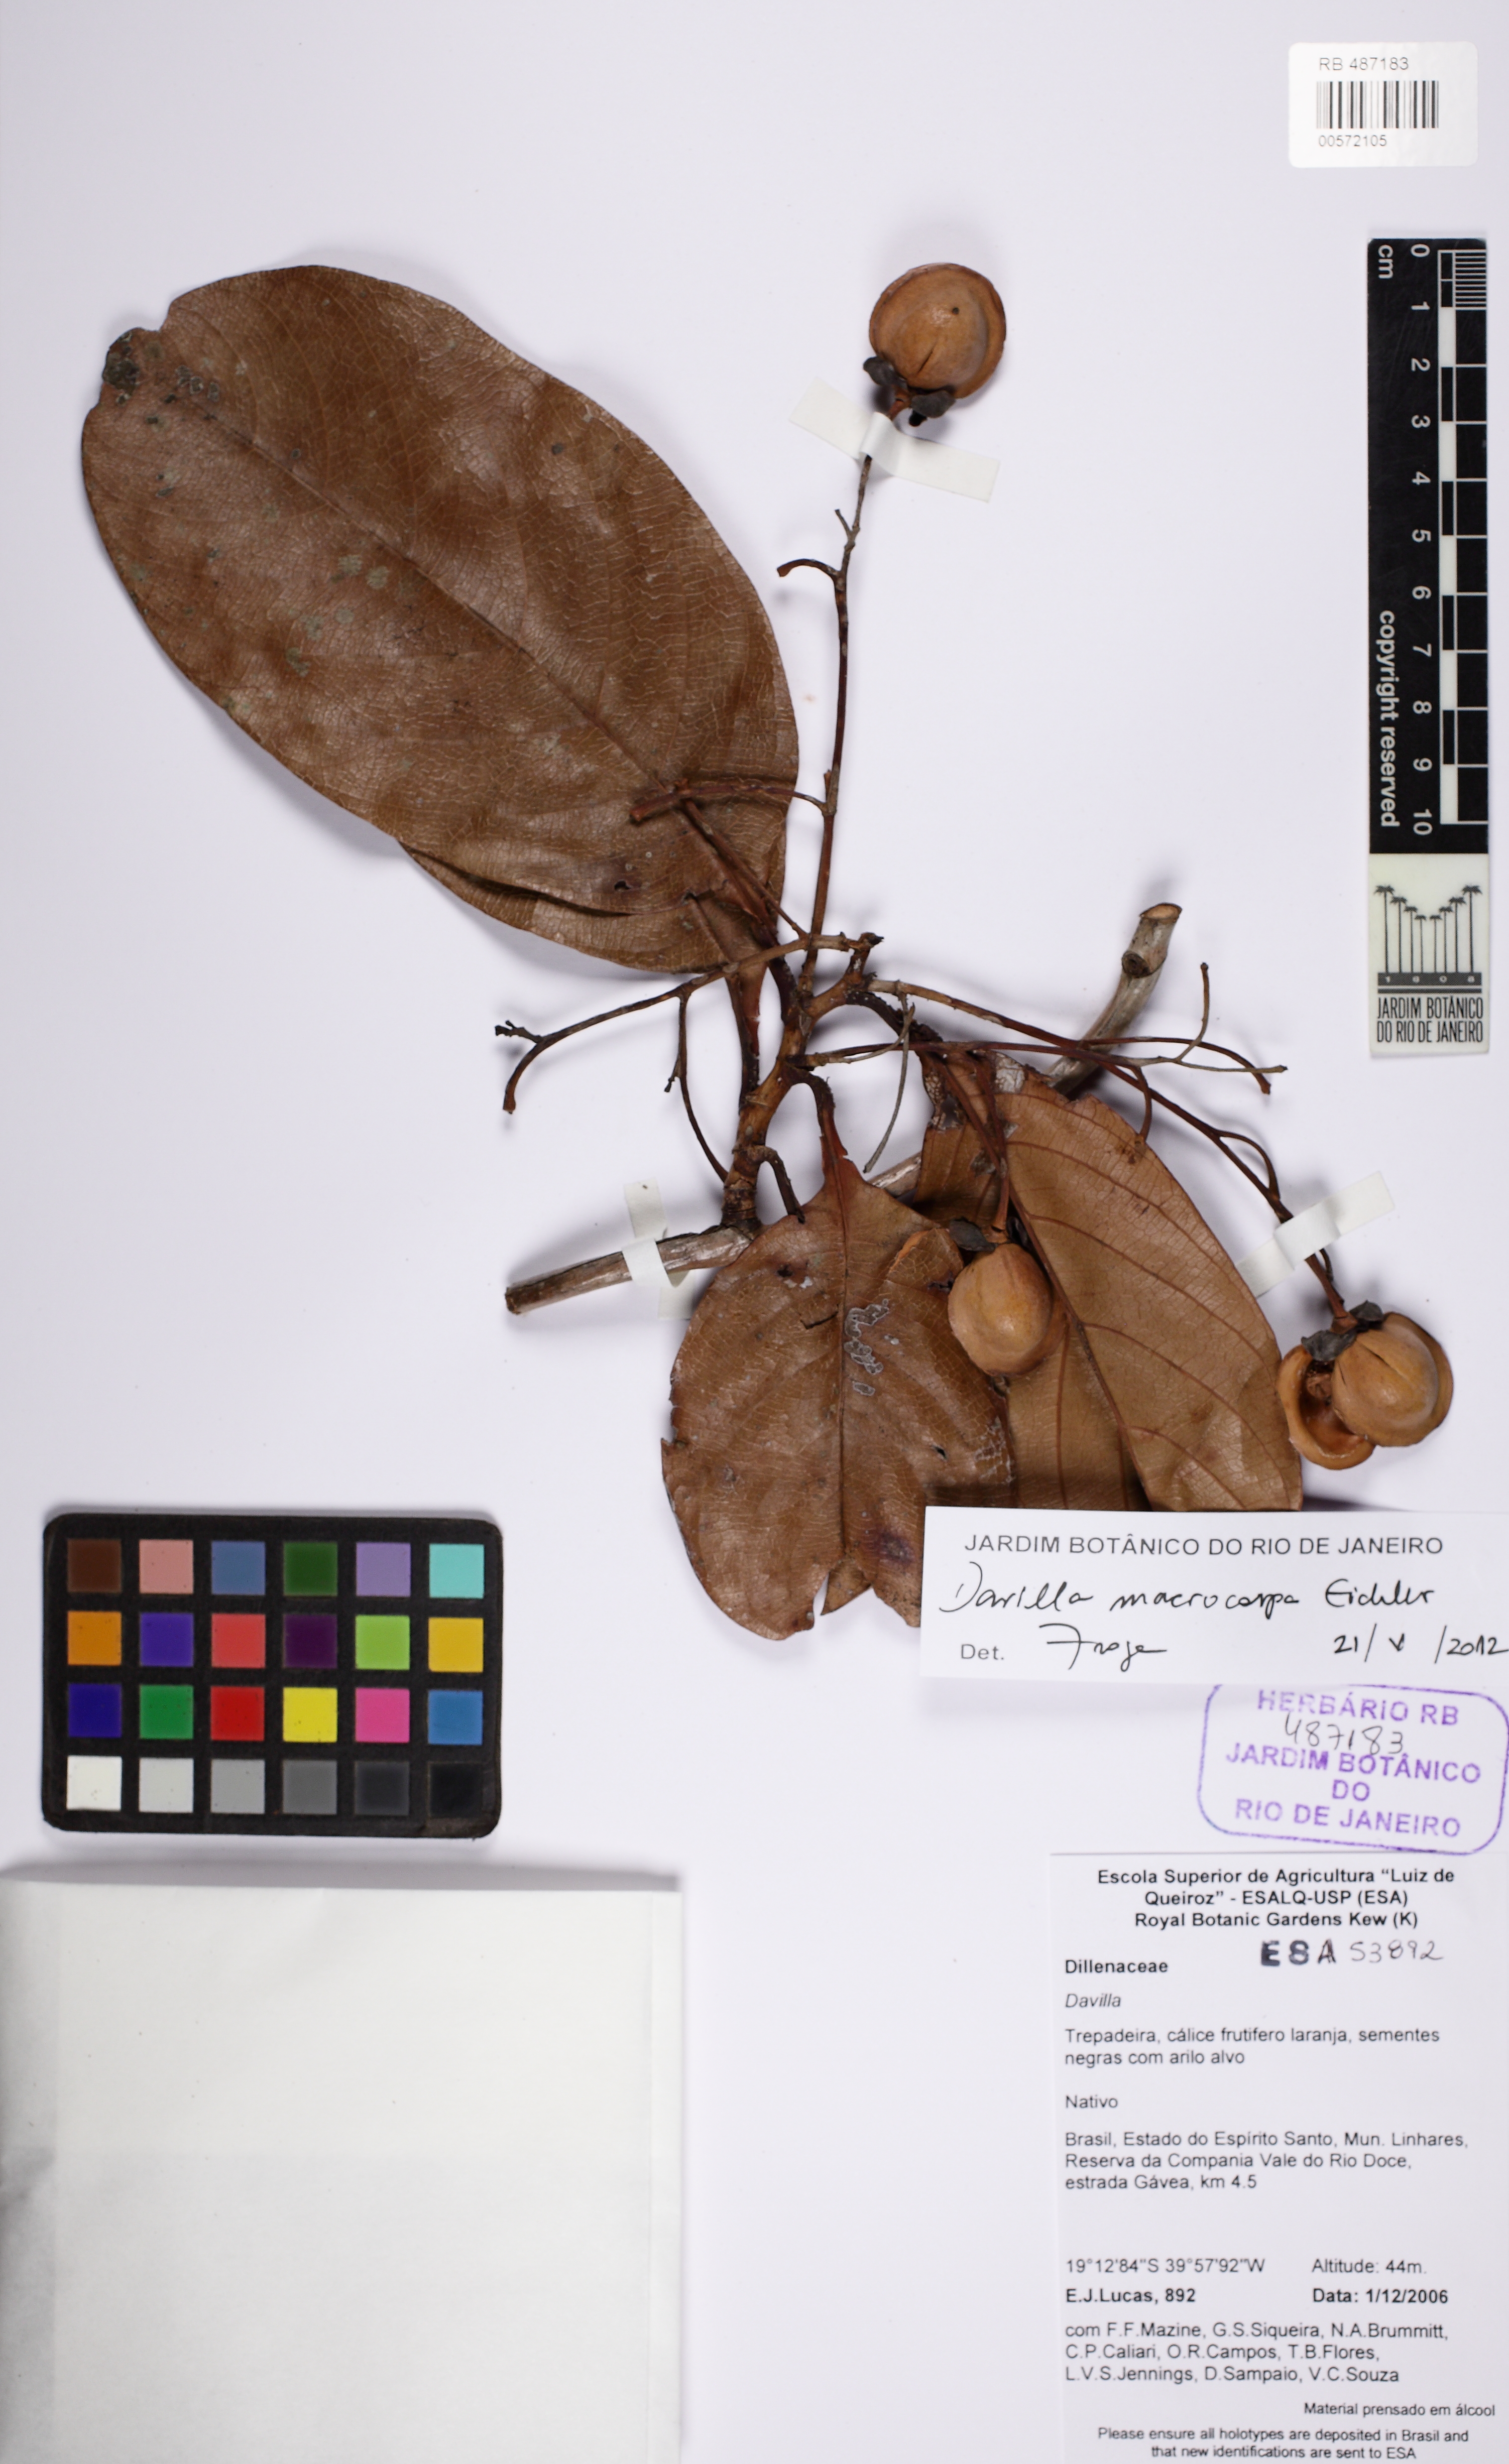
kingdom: Plantae
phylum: Tracheophyta
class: Magnoliopsida
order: Dilleniales
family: Dilleniaceae
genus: Davilla
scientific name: Davilla macrocarpa
